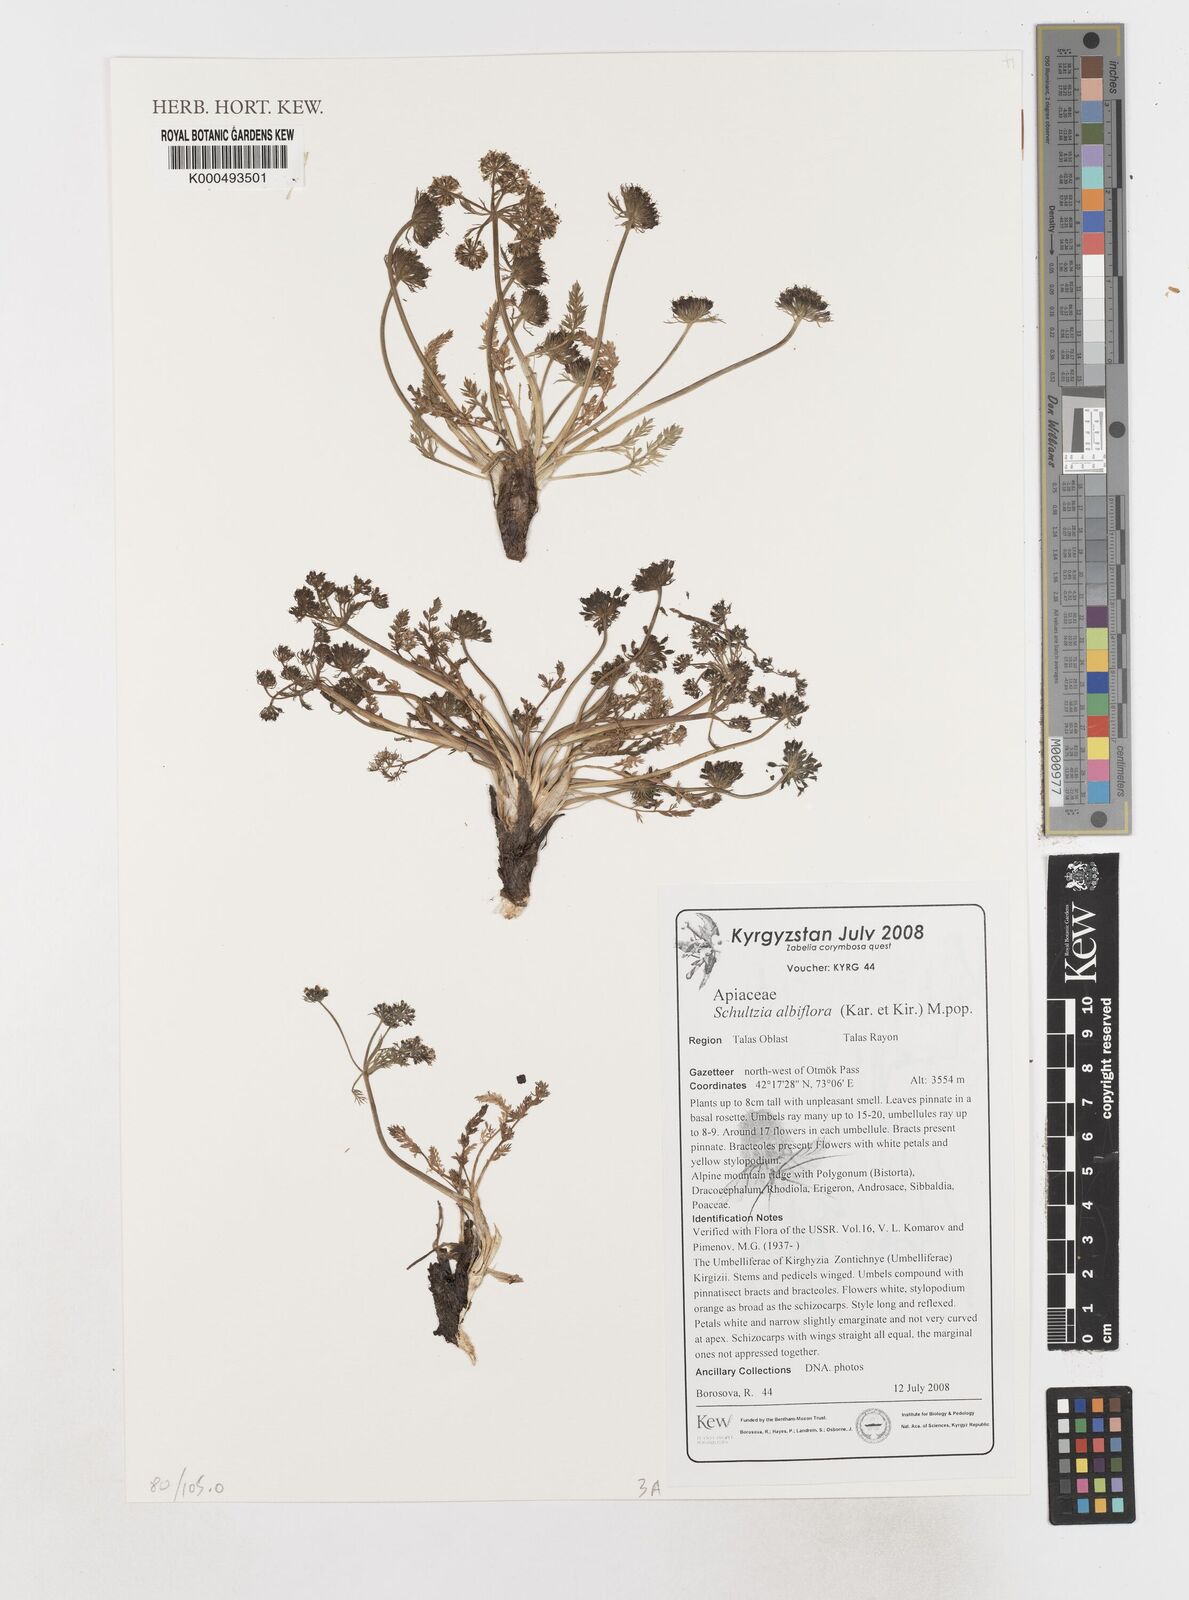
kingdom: Plantae
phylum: Tracheophyta
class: Magnoliopsida
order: Apiales
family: Apiaceae
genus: Schulzia
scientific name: Schulzia
